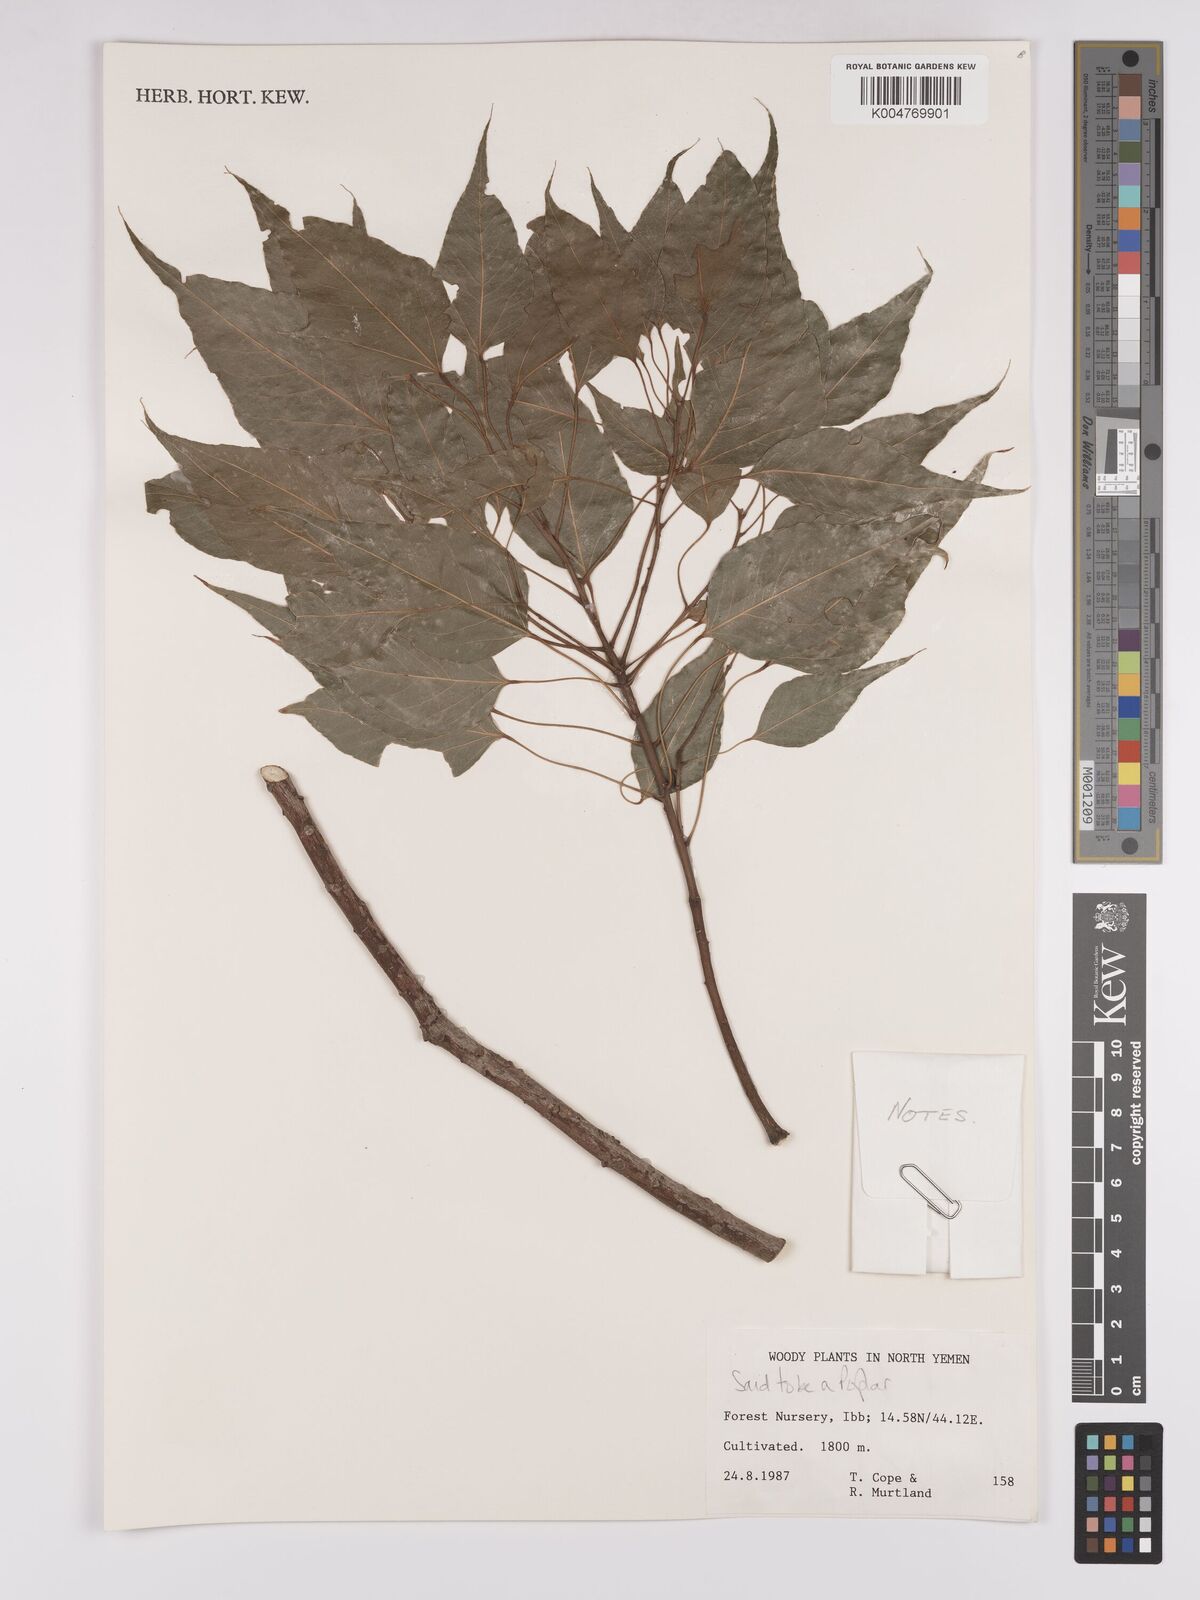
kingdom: Plantae
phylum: Tracheophyta
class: Magnoliopsida
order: Malpighiales
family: Salicaceae
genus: Populus
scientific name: Populus
